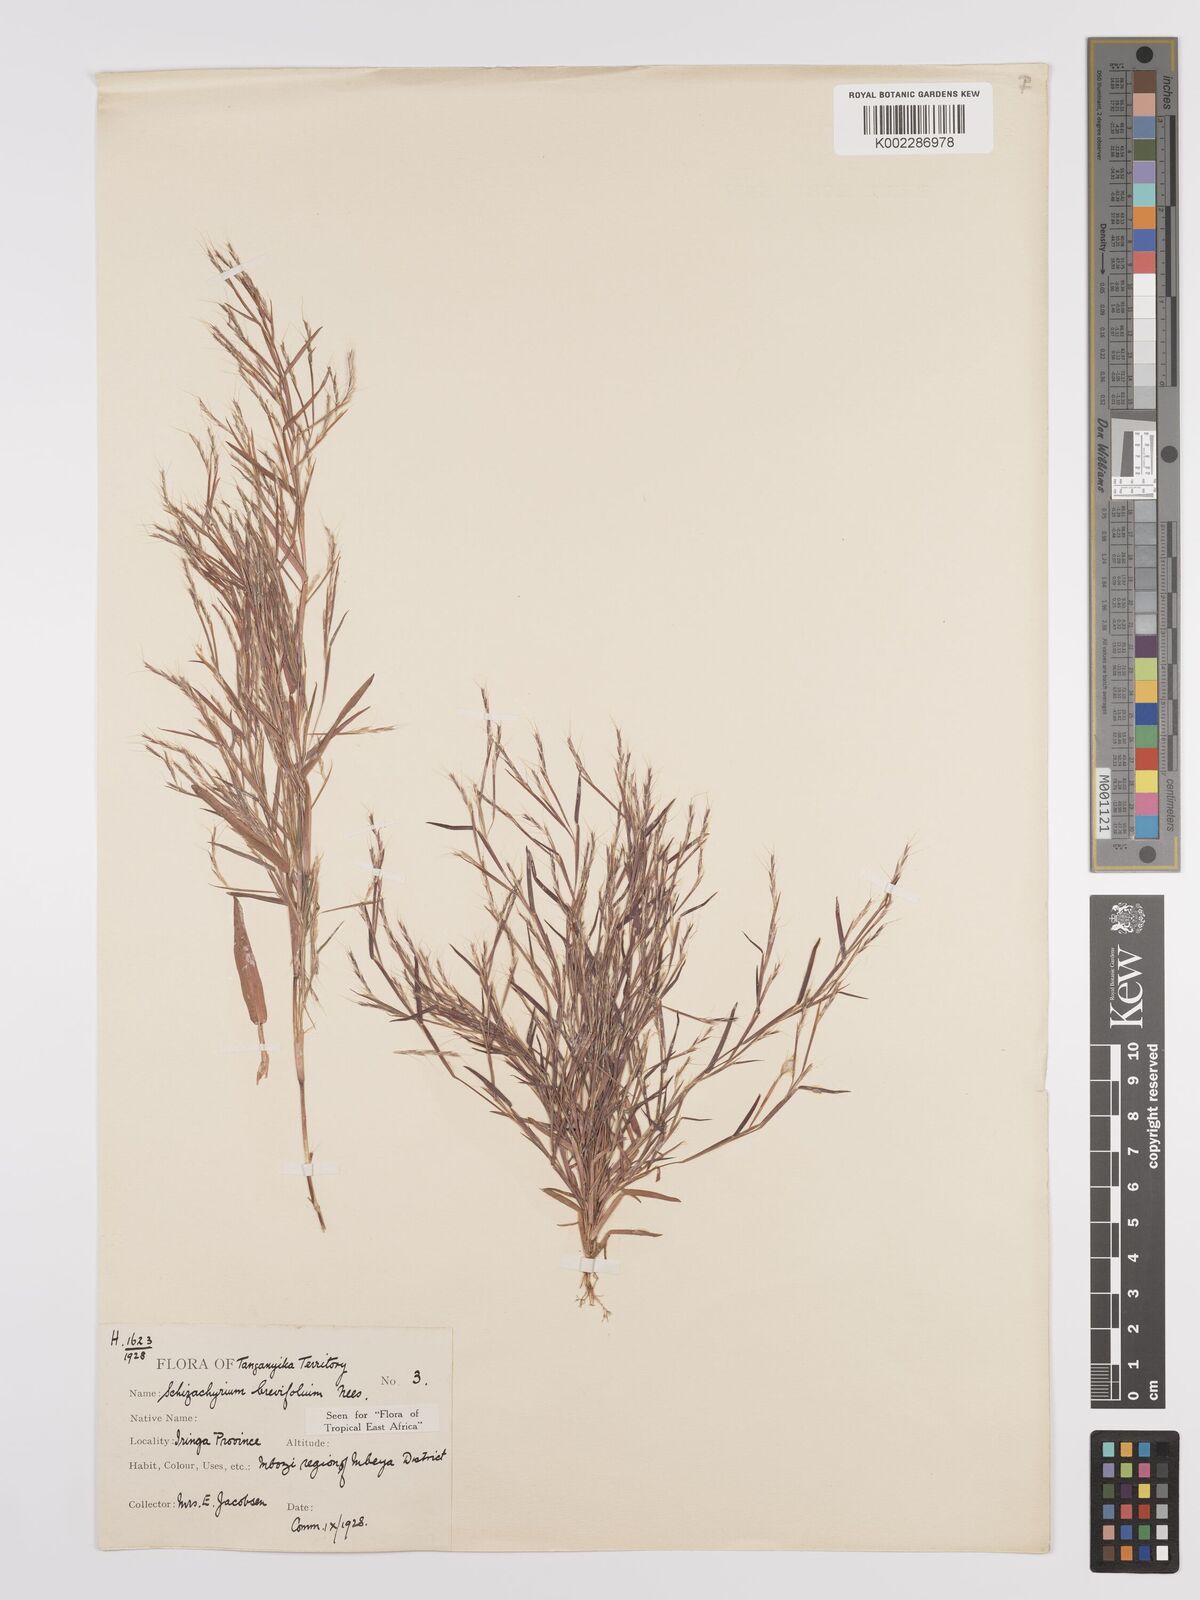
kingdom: Plantae
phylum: Tracheophyta
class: Liliopsida
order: Poales
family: Poaceae
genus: Schizachyrium
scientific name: Schizachyrium brevifolium
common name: Serillo dulce
